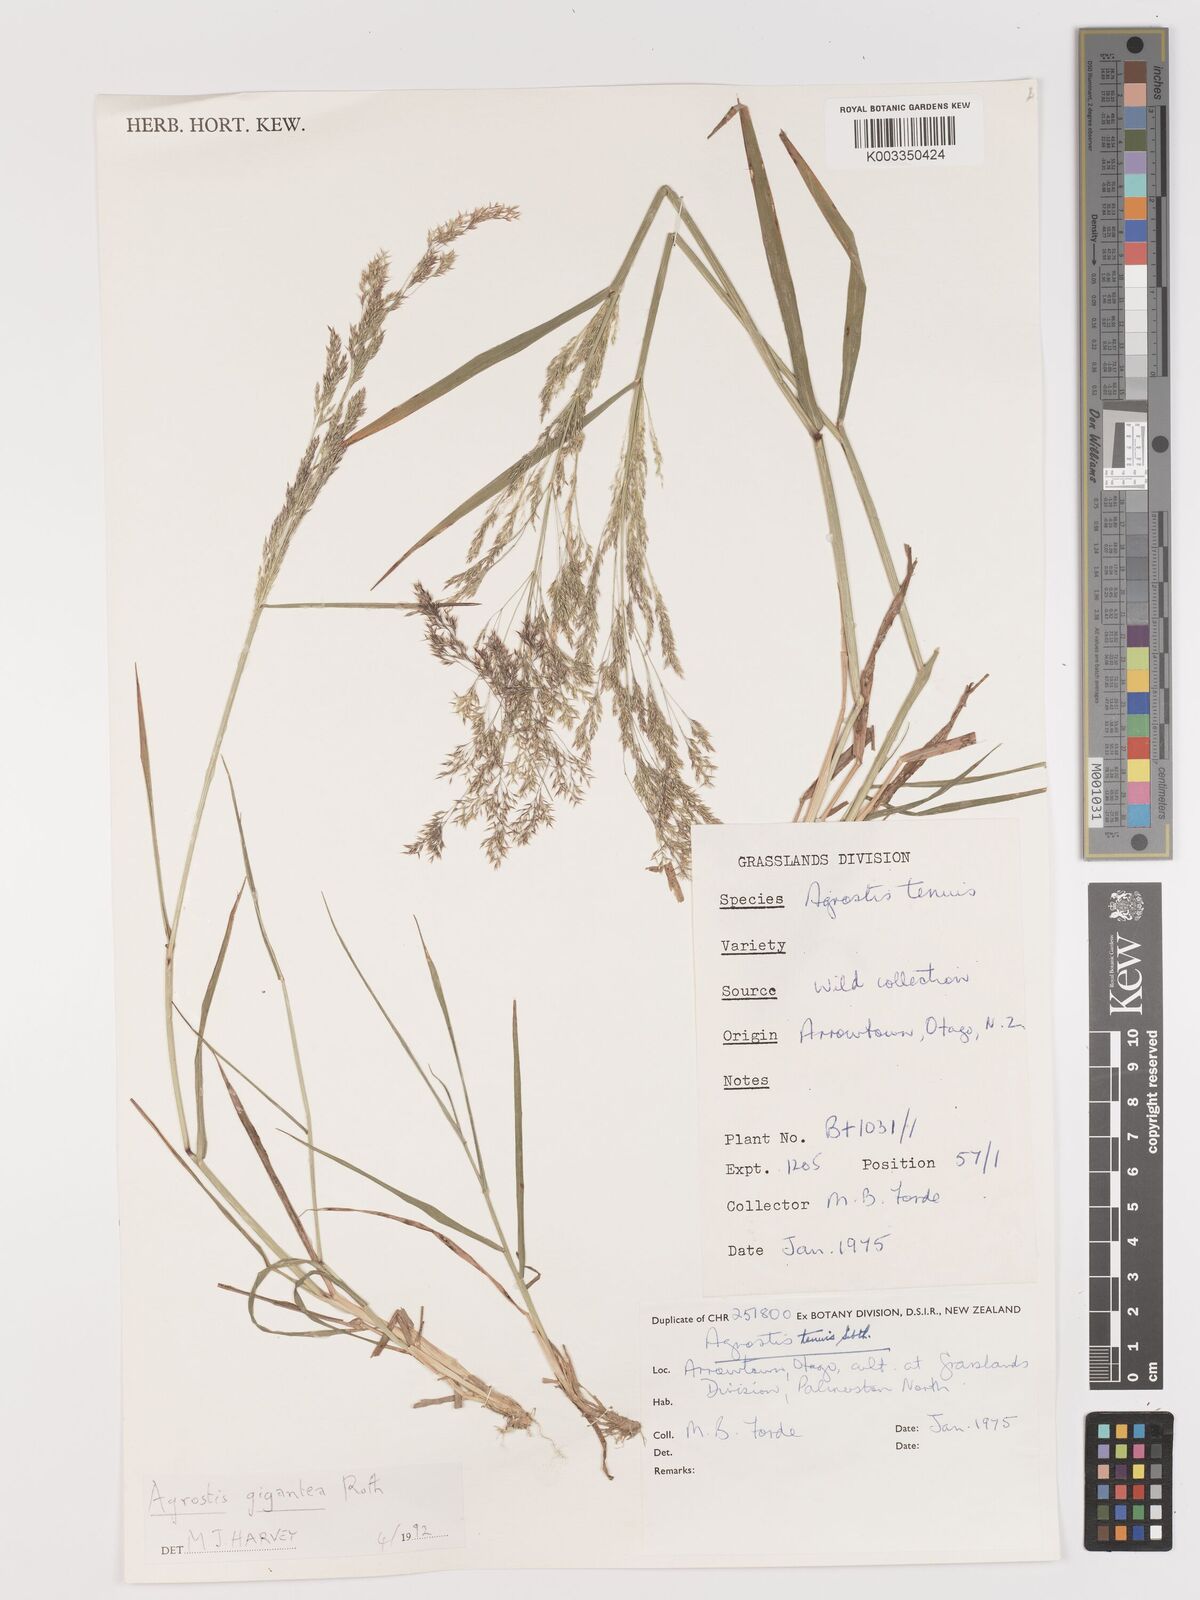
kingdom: Plantae
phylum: Tracheophyta
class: Liliopsida
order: Poales
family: Poaceae
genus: Agrostis
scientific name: Agrostis capillaris
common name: Colonial bentgrass
